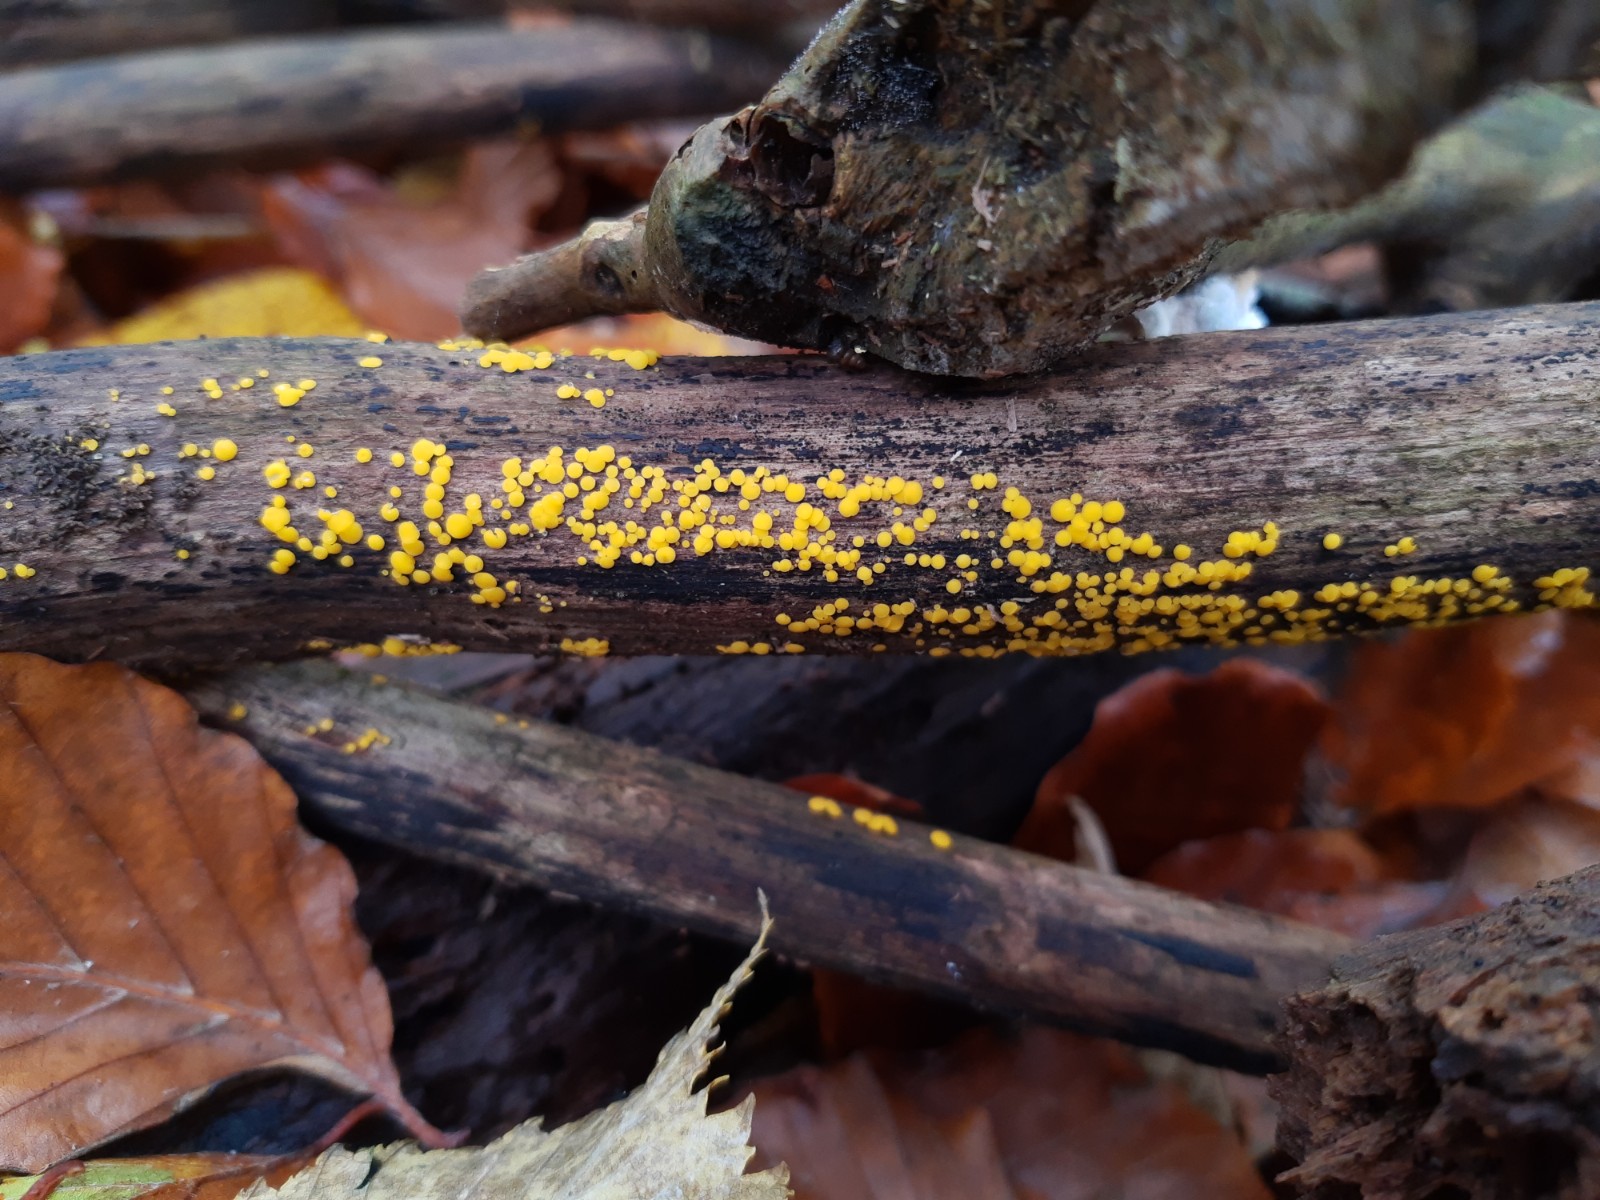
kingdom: Fungi
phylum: Ascomycota
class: Leotiomycetes
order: Helotiales
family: Pezizellaceae
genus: Calycina
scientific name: Calycina citrina
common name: almindelig gulskive
